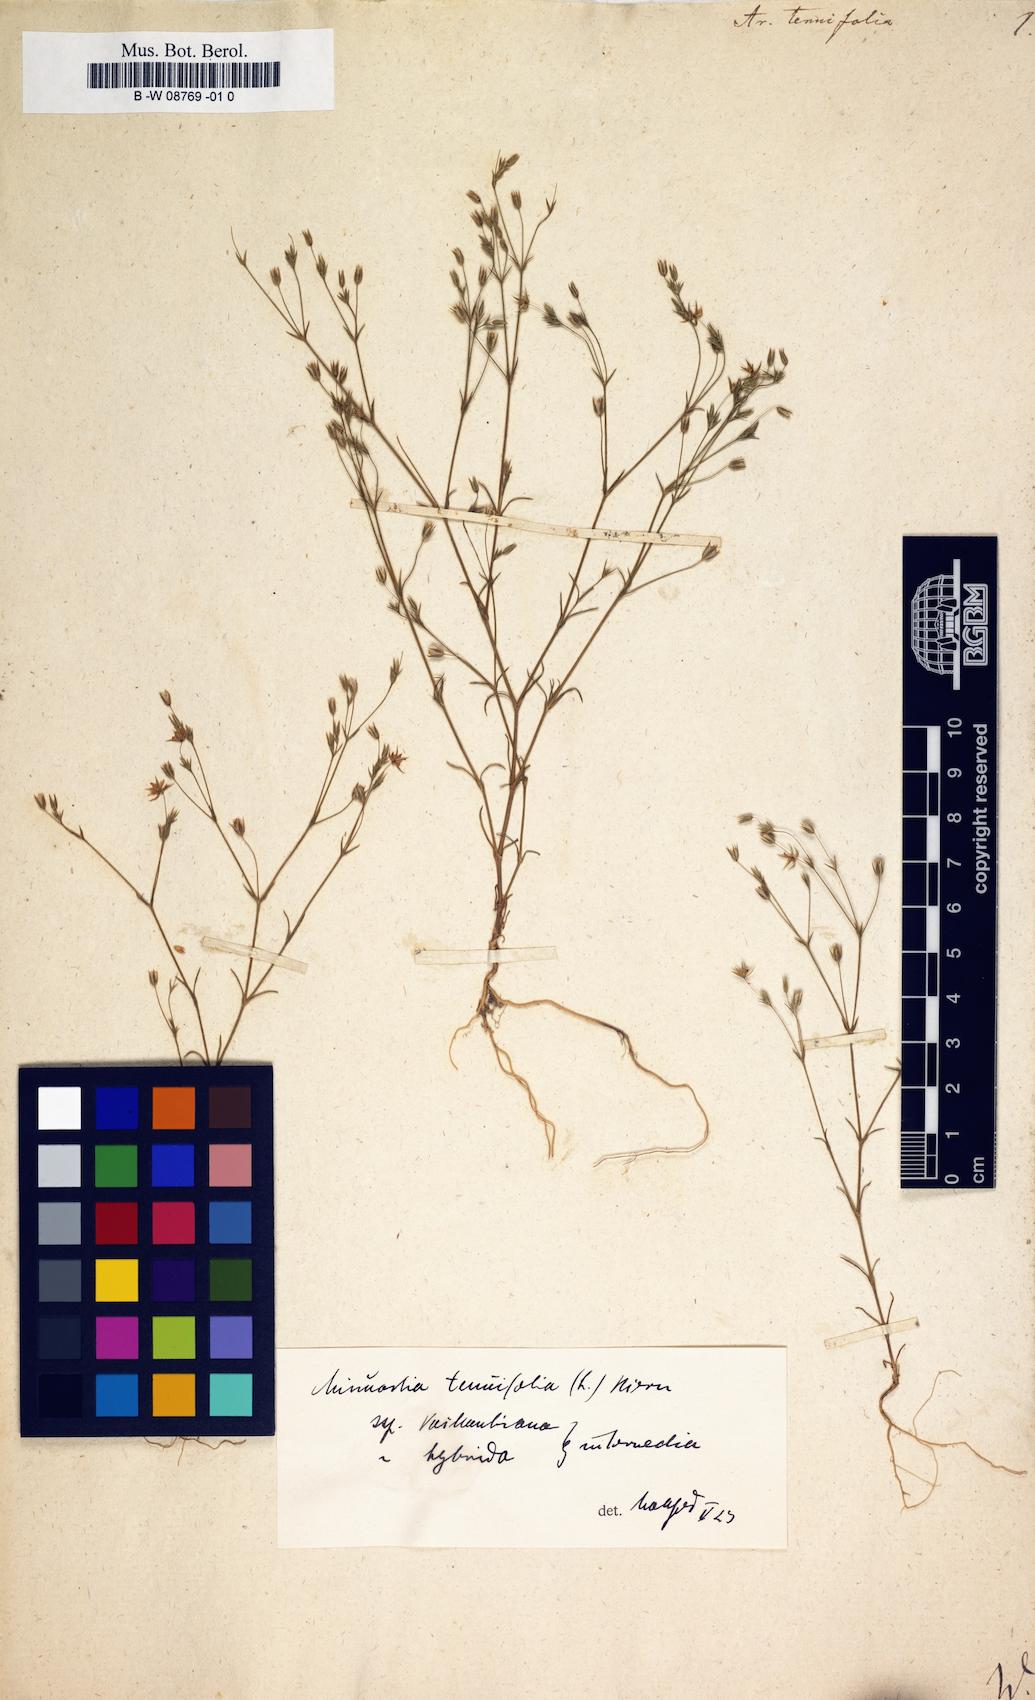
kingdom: Plantae
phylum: Tracheophyta
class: Magnoliopsida
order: Caryophyllales
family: Caryophyllaceae
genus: Sabulina
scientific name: Sabulina tenuifolia
